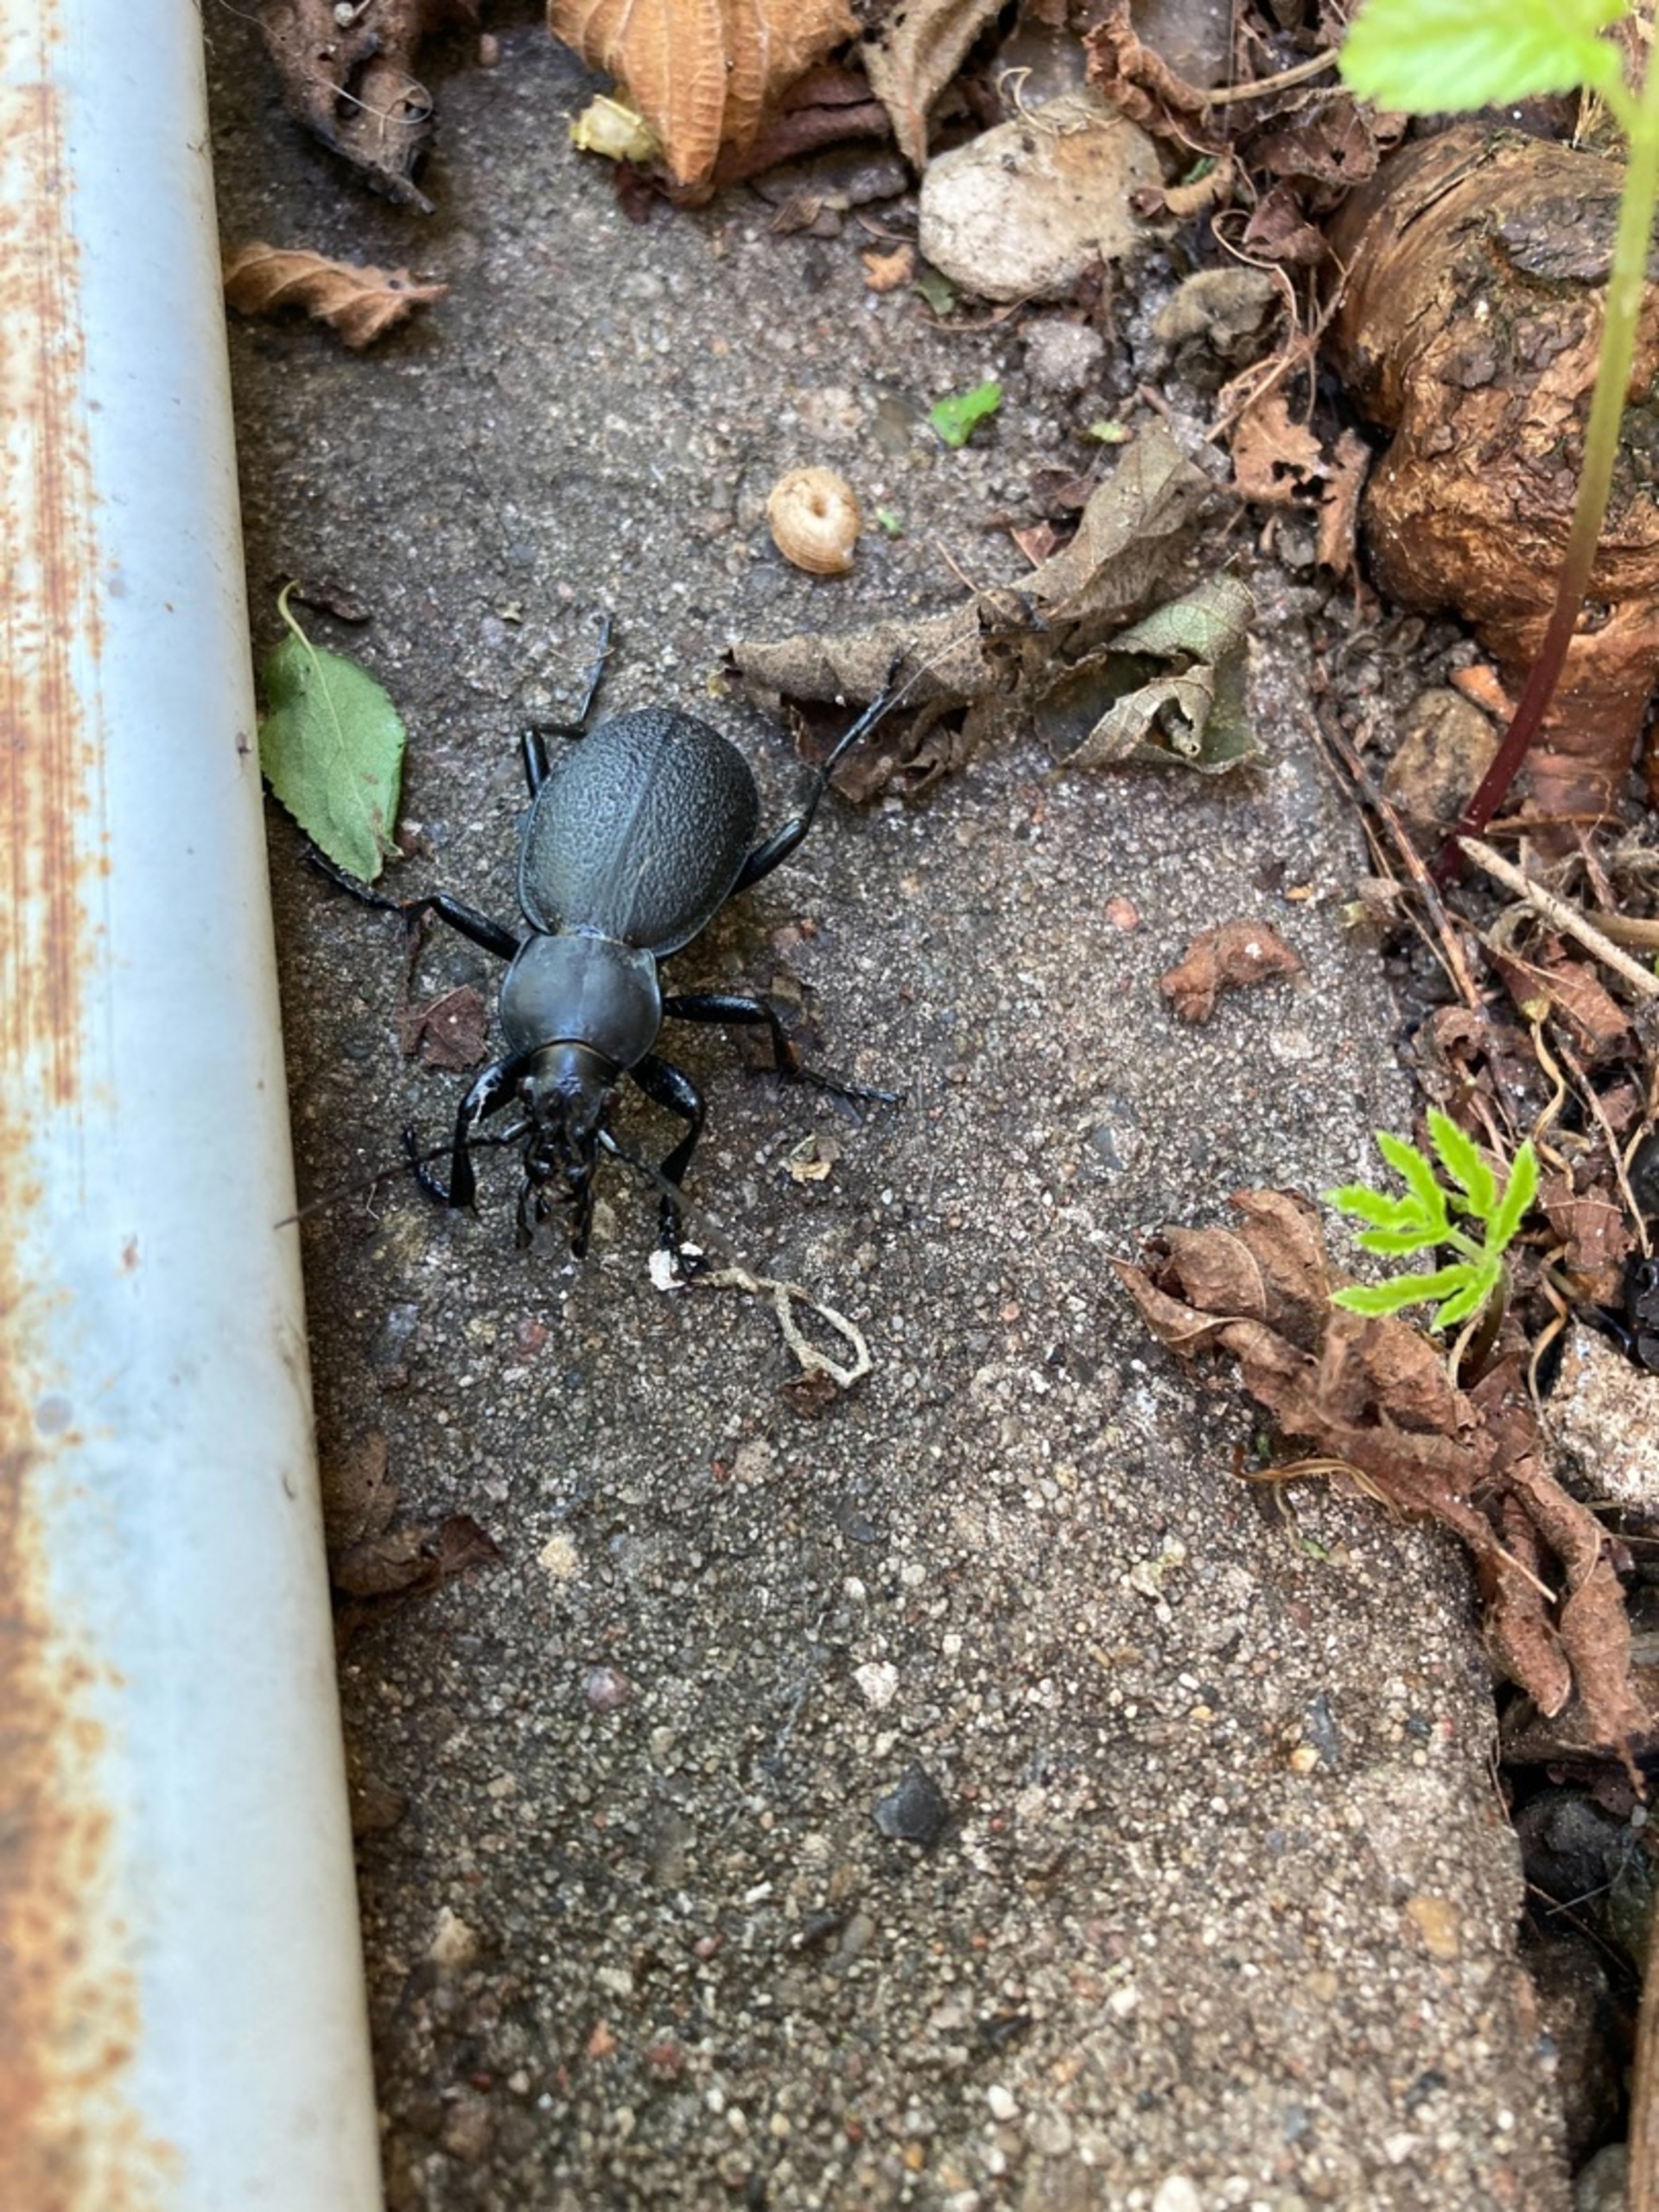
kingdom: Animalia
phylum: Arthropoda
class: Insecta
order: Coleoptera
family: Carabidae
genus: Carabus
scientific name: Carabus coriaceus
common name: Læderløber
